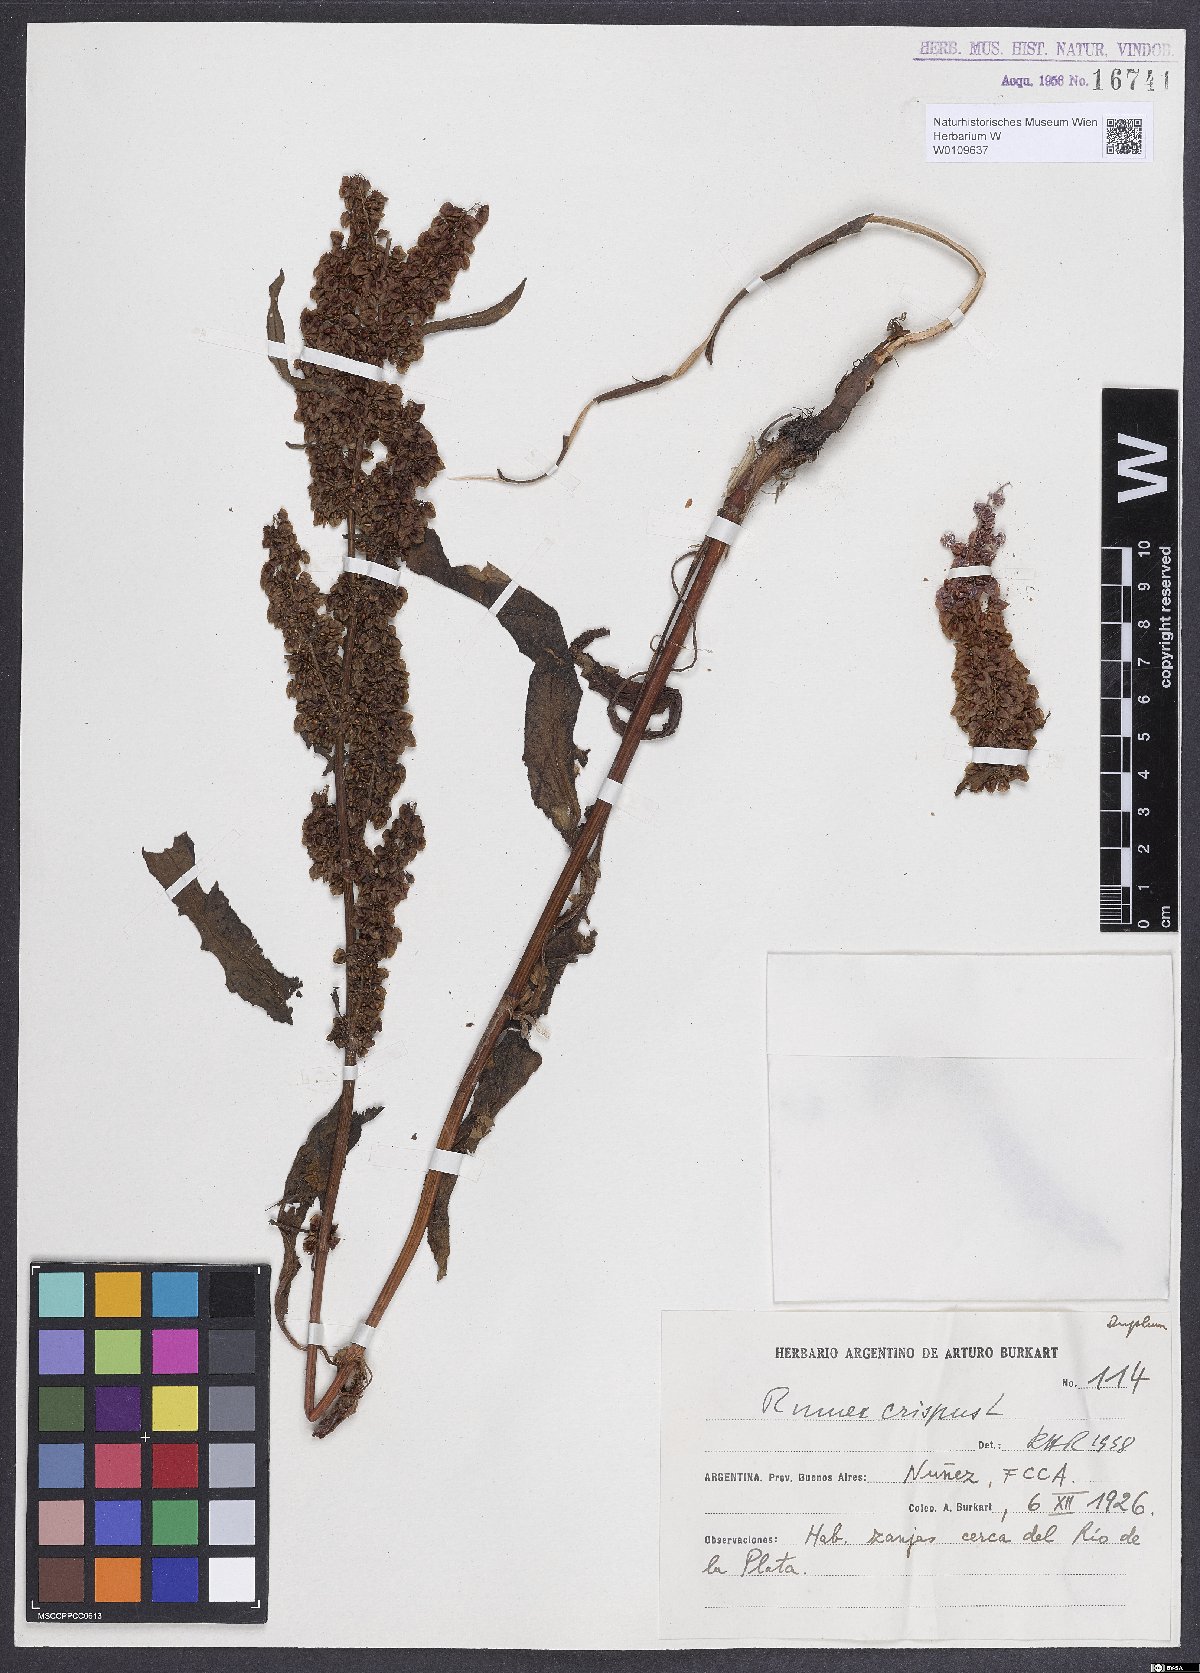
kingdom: Plantae
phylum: Tracheophyta
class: Magnoliopsida
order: Caryophyllales
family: Polygonaceae
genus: Rumex
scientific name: Rumex crispus
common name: Curled dock
